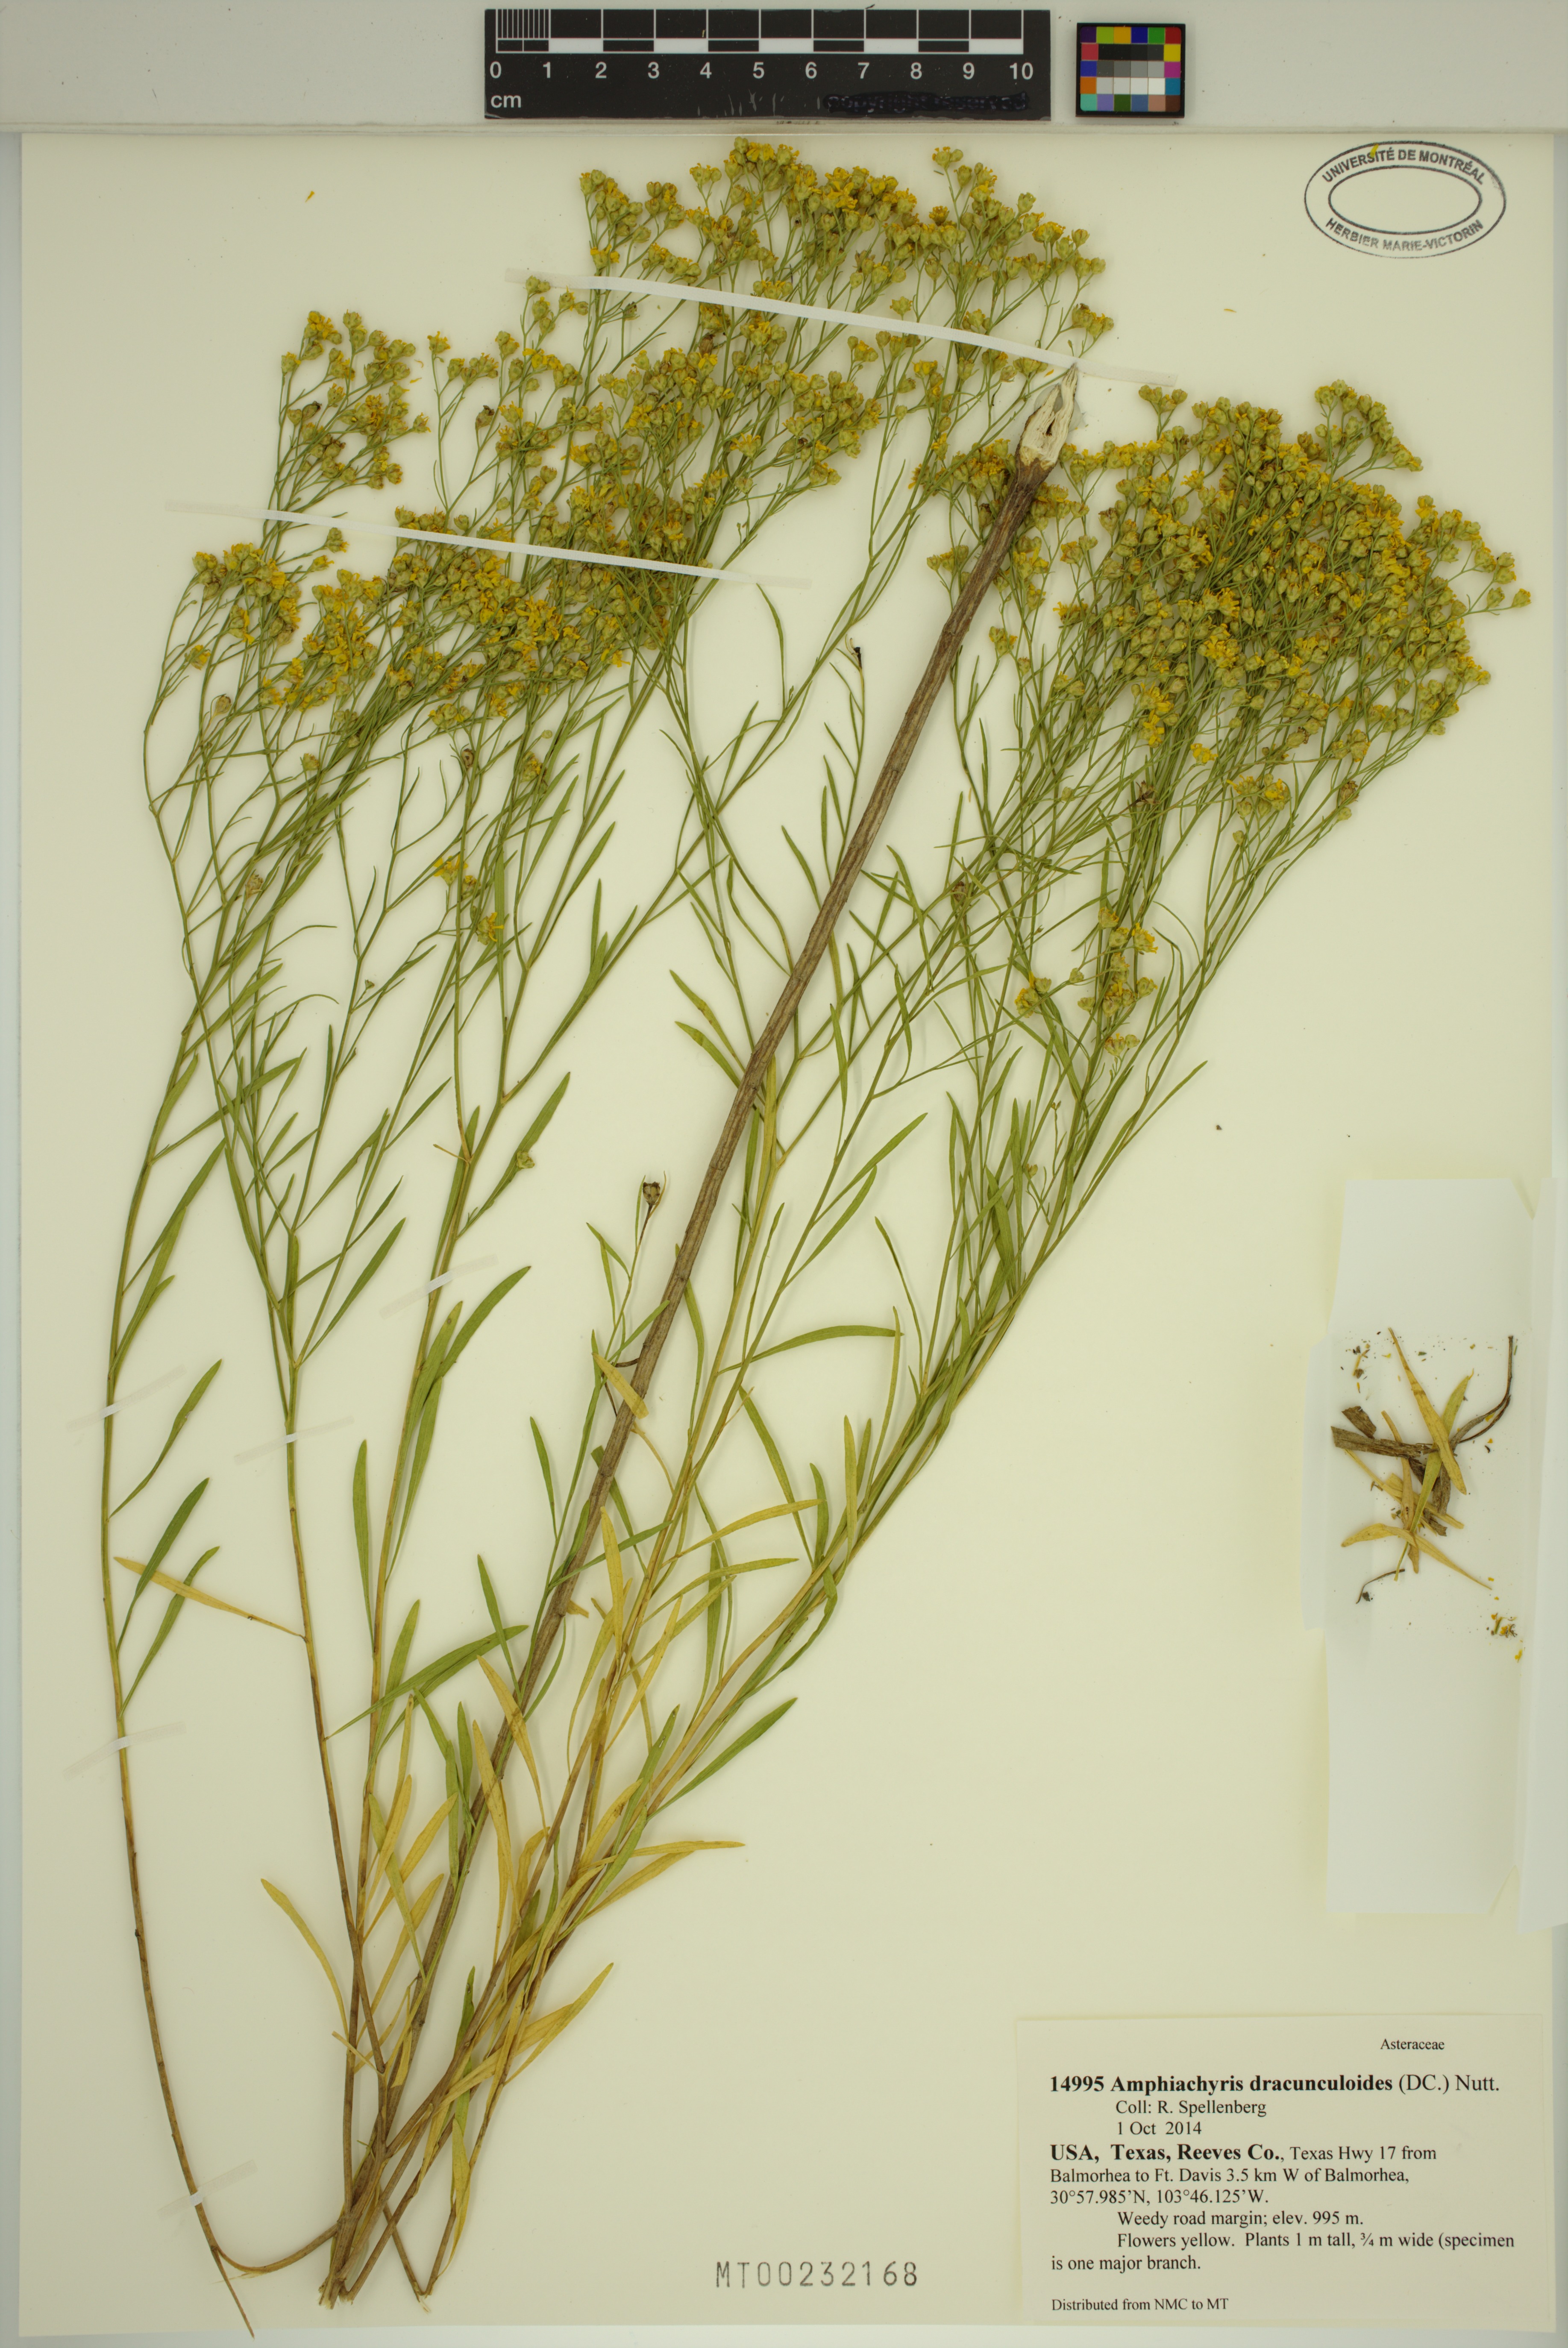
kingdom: Plantae
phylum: Tracheophyta
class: Magnoliopsida
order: Asterales
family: Asteraceae
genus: Amphiachyris
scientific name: Amphiachyris dracunculoides
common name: Broomweed
